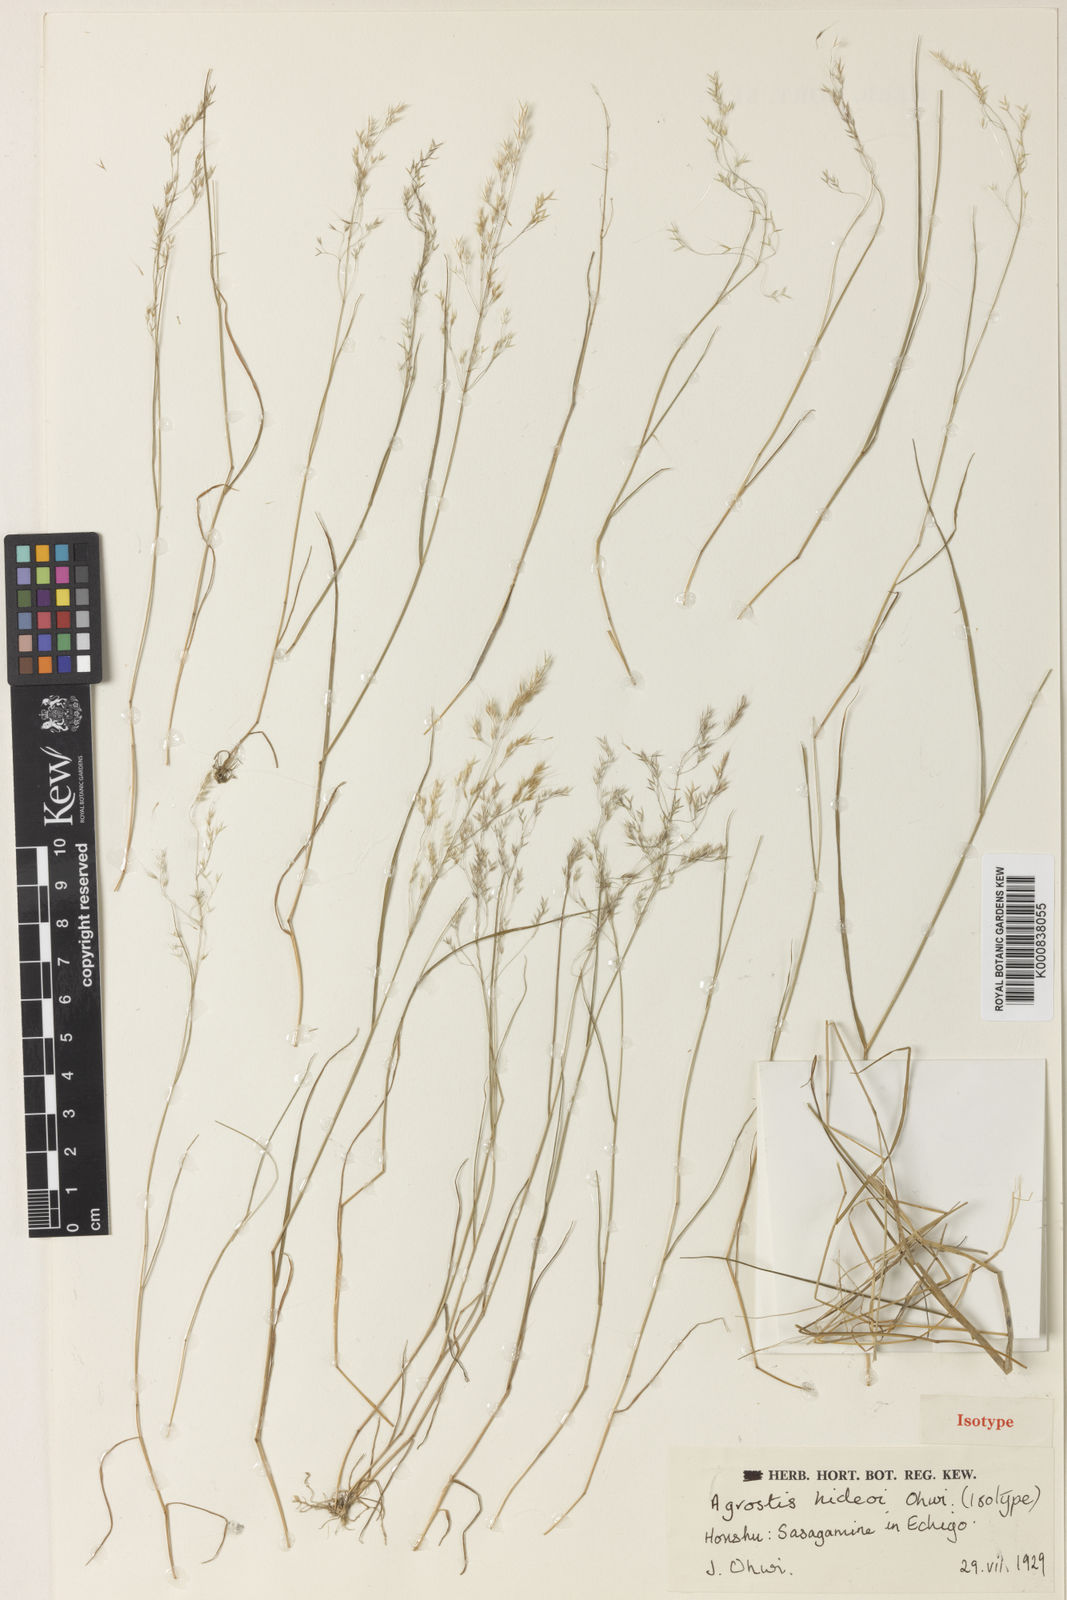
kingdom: Plantae
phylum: Tracheophyta
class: Liliopsida
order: Poales
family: Poaceae
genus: Agrostis
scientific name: Agrostis hideoi
